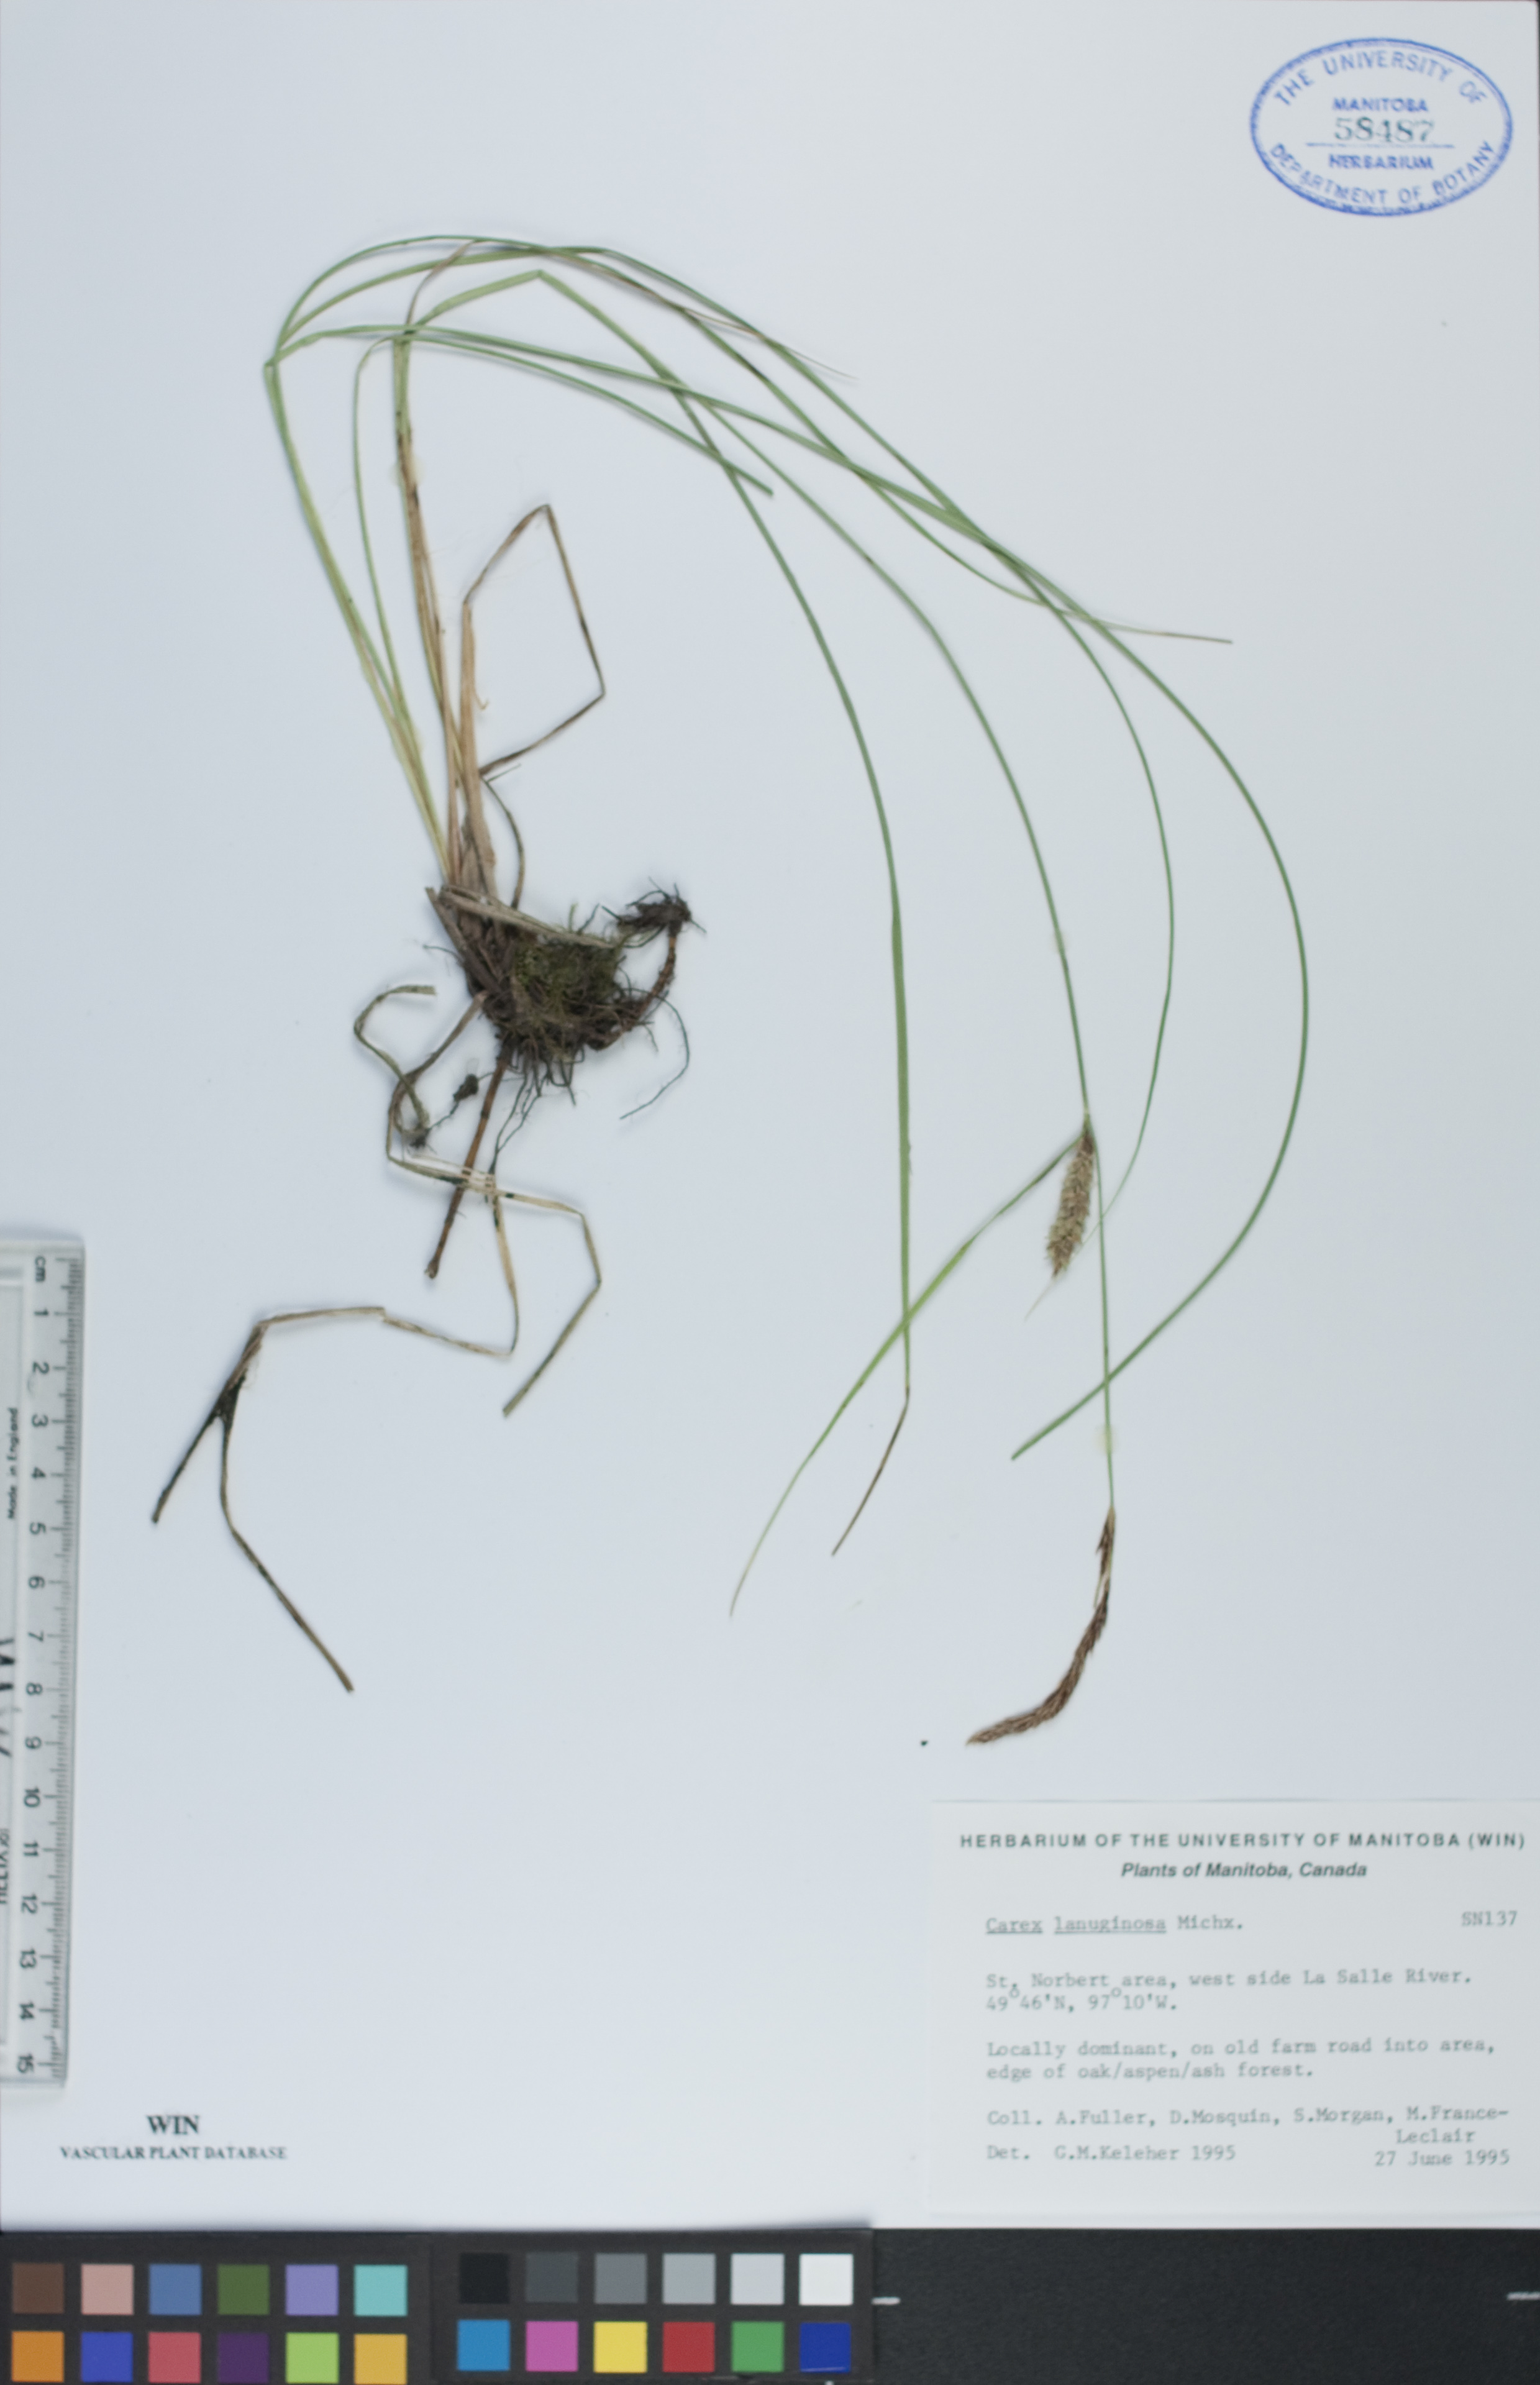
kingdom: Plantae
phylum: Tracheophyta
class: Liliopsida
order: Poales
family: Cyperaceae
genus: Carex
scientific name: Carex lasiocarpa
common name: Slender sedge
